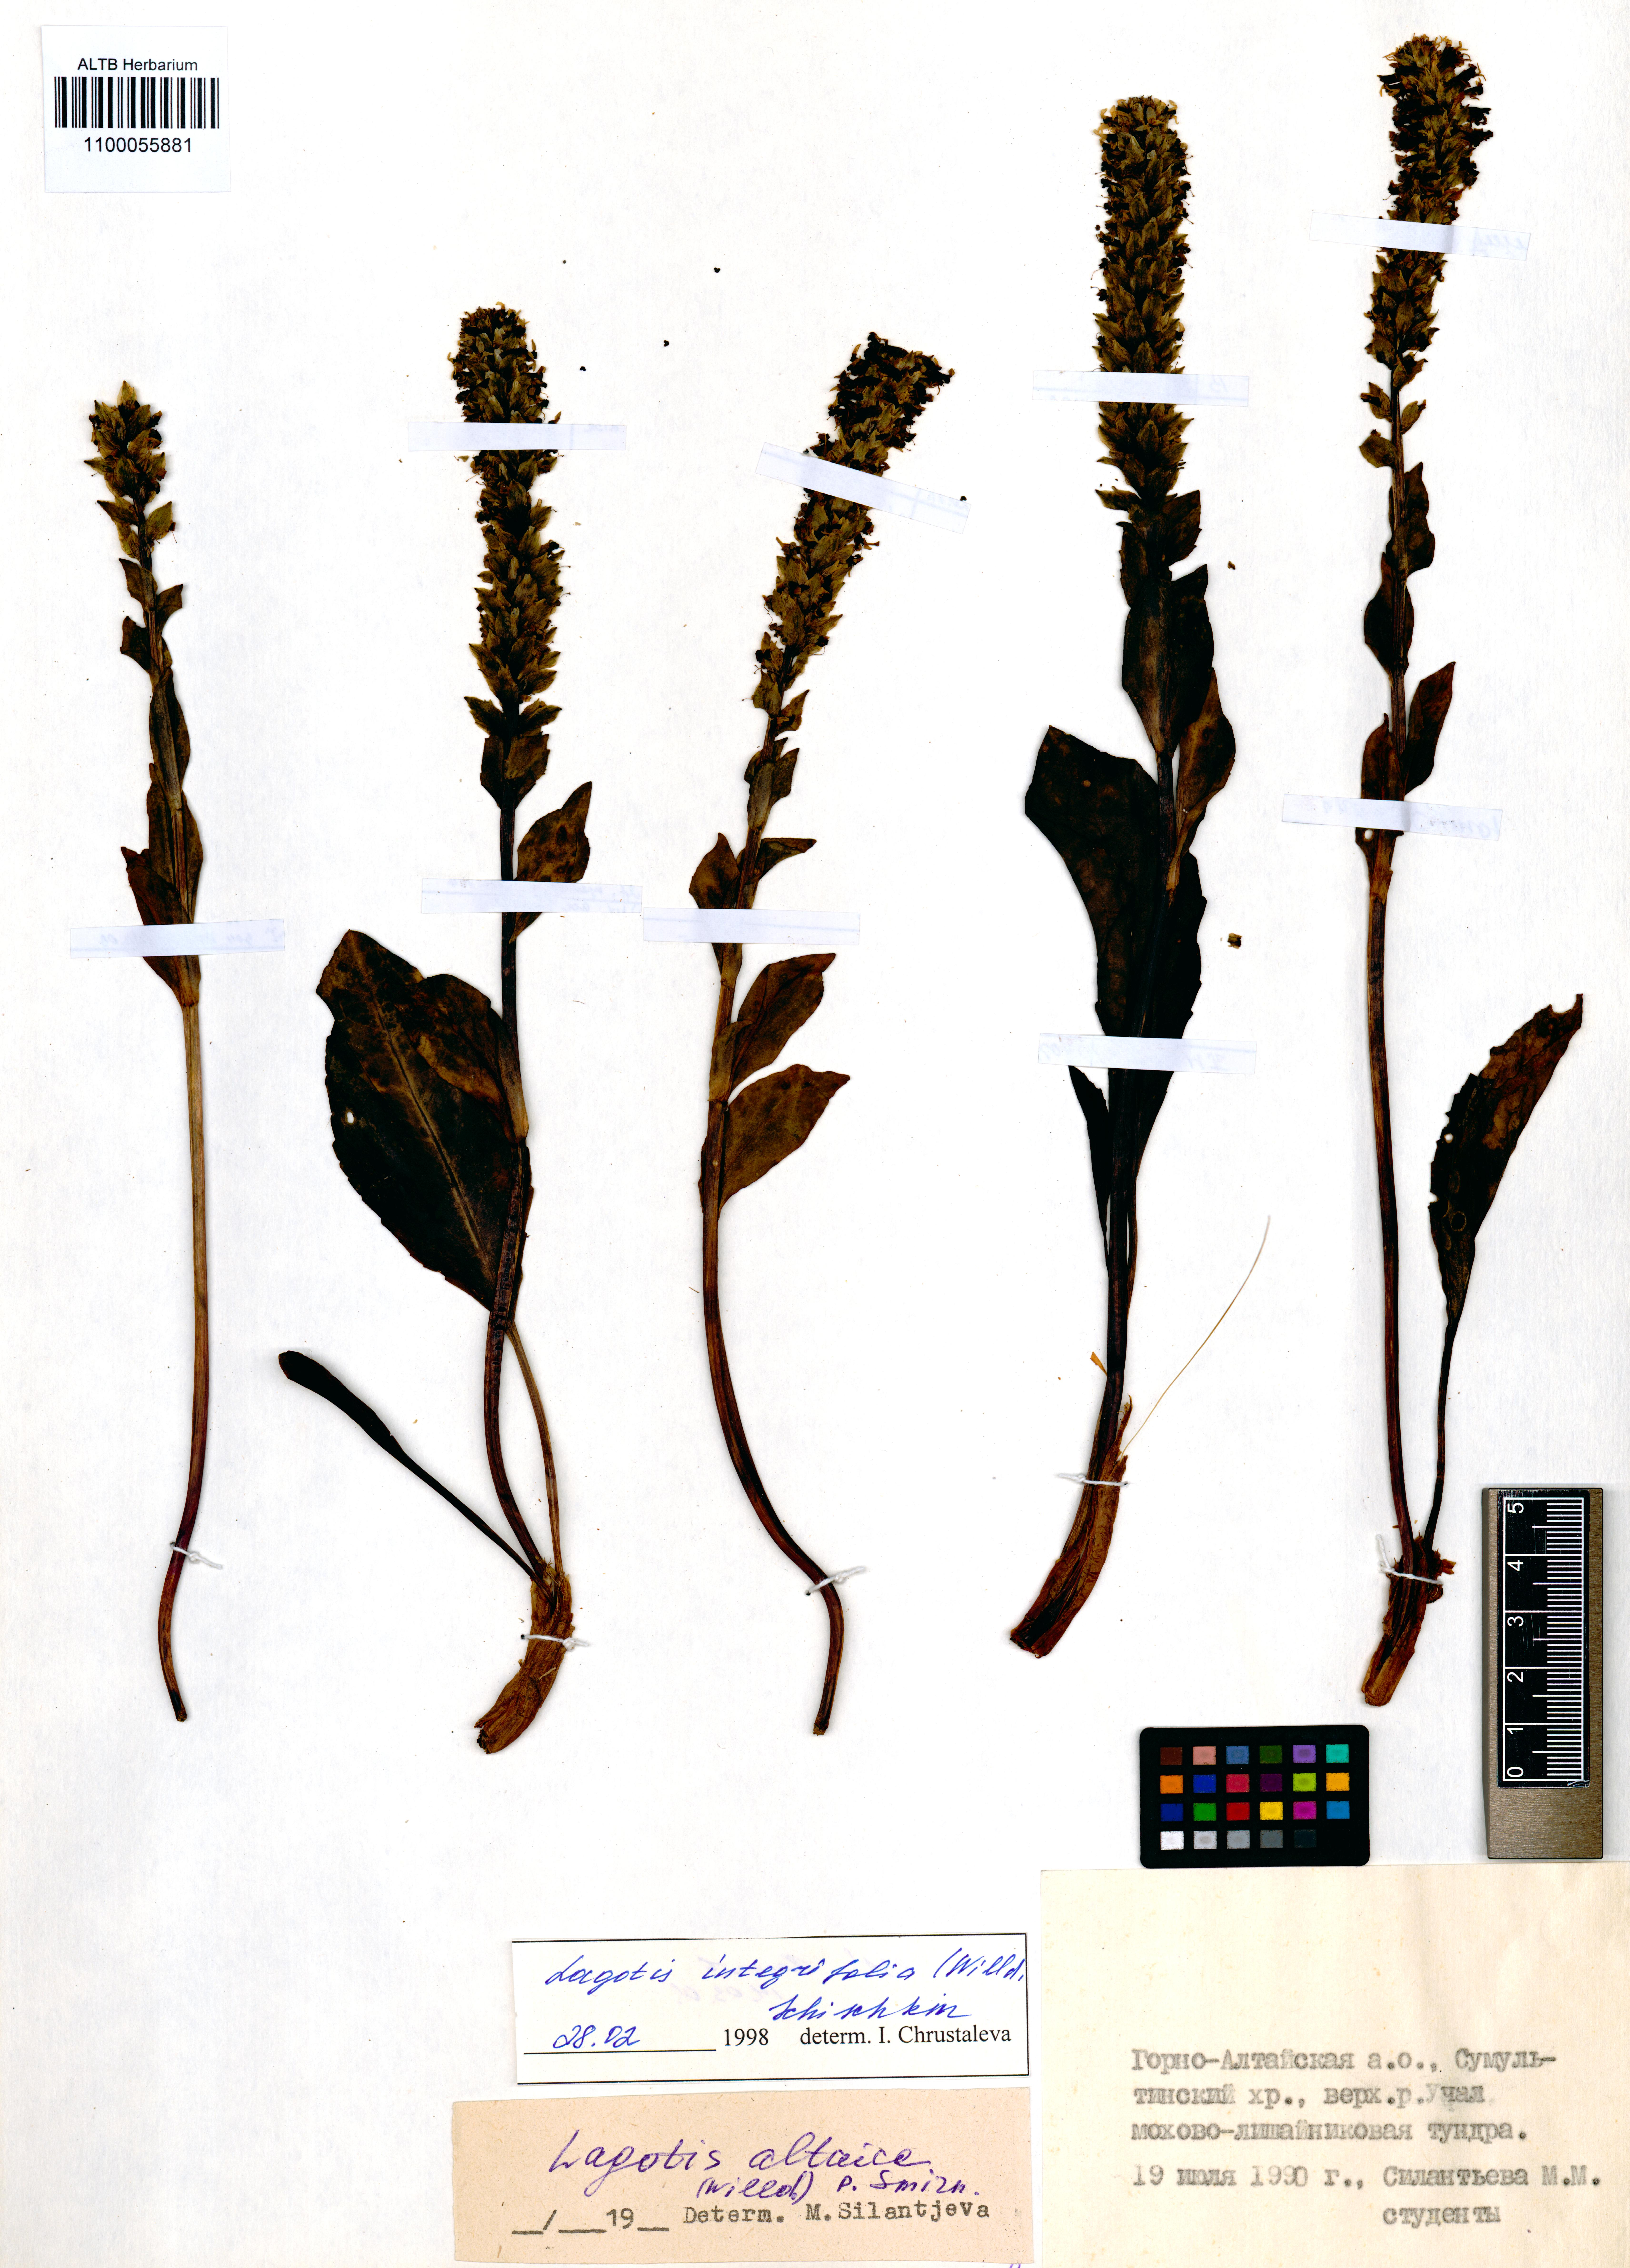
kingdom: Plantae
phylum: Tracheophyta
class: Magnoliopsida
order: Lamiales
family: Plantaginaceae
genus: Lagotis
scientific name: Lagotis integrifolia
